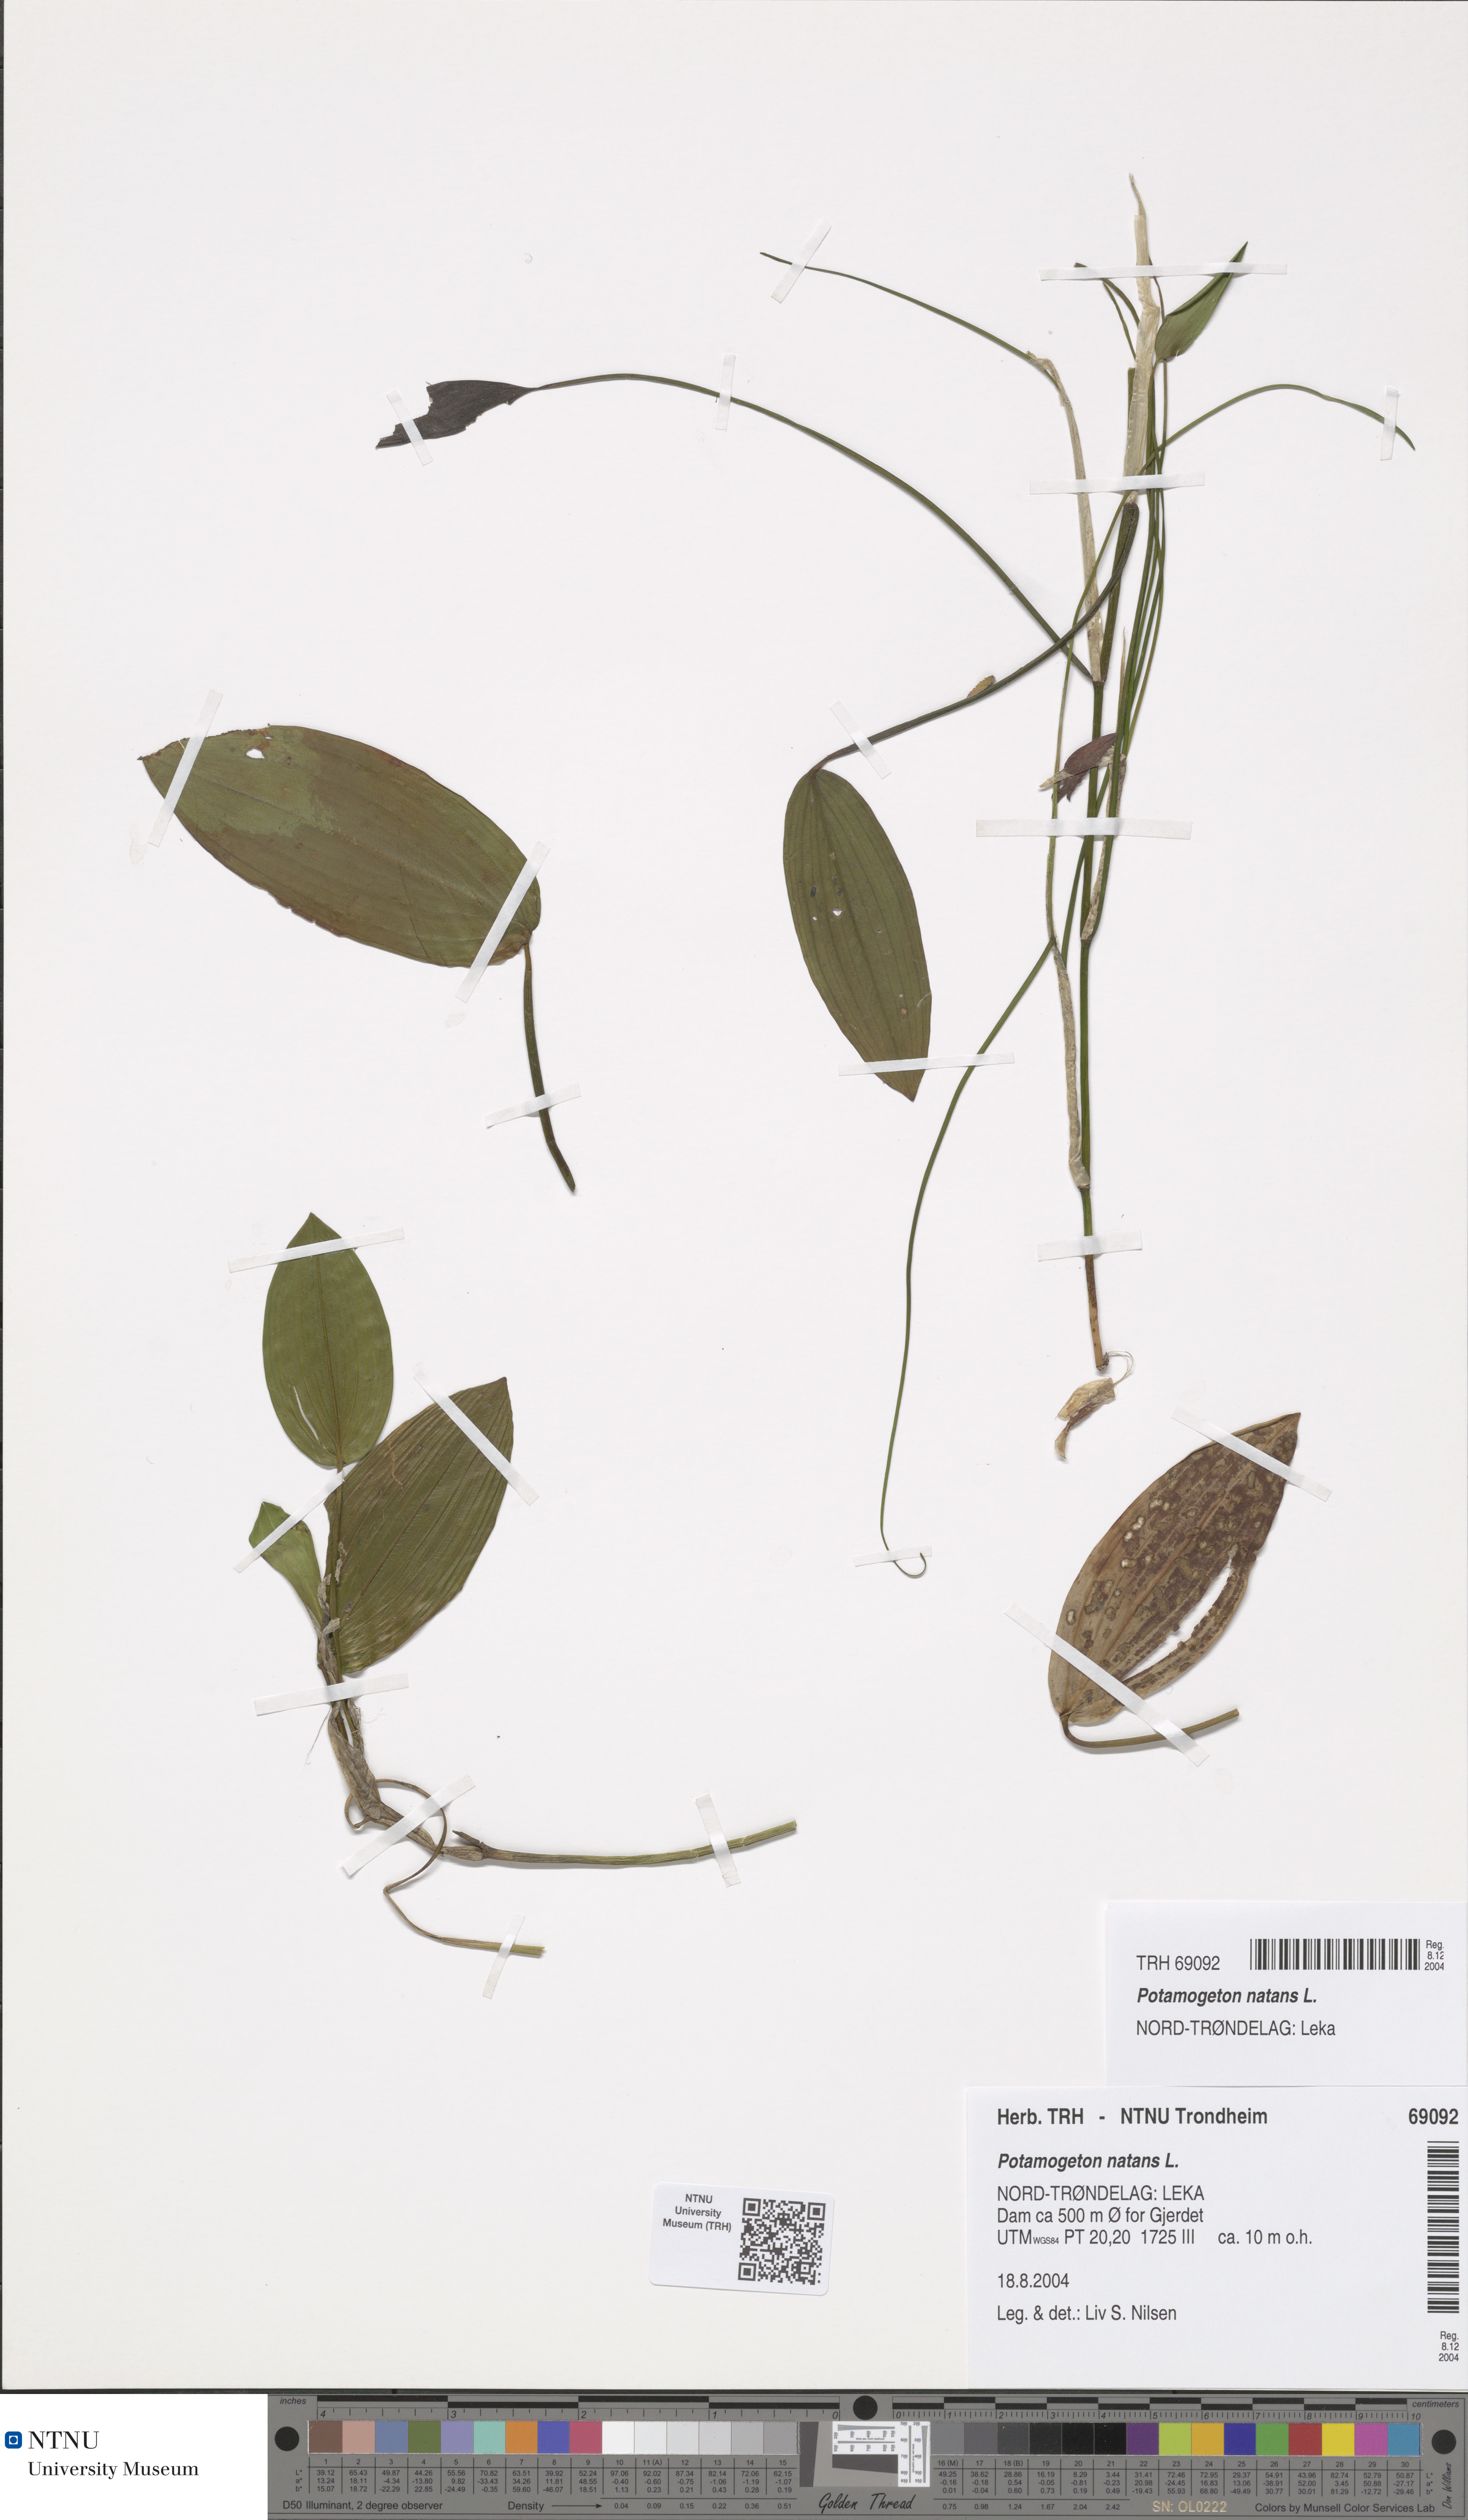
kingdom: Plantae
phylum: Tracheophyta
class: Liliopsida
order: Alismatales
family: Potamogetonaceae
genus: Potamogeton
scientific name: Potamogeton natans
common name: Broad-leaved pondweed
